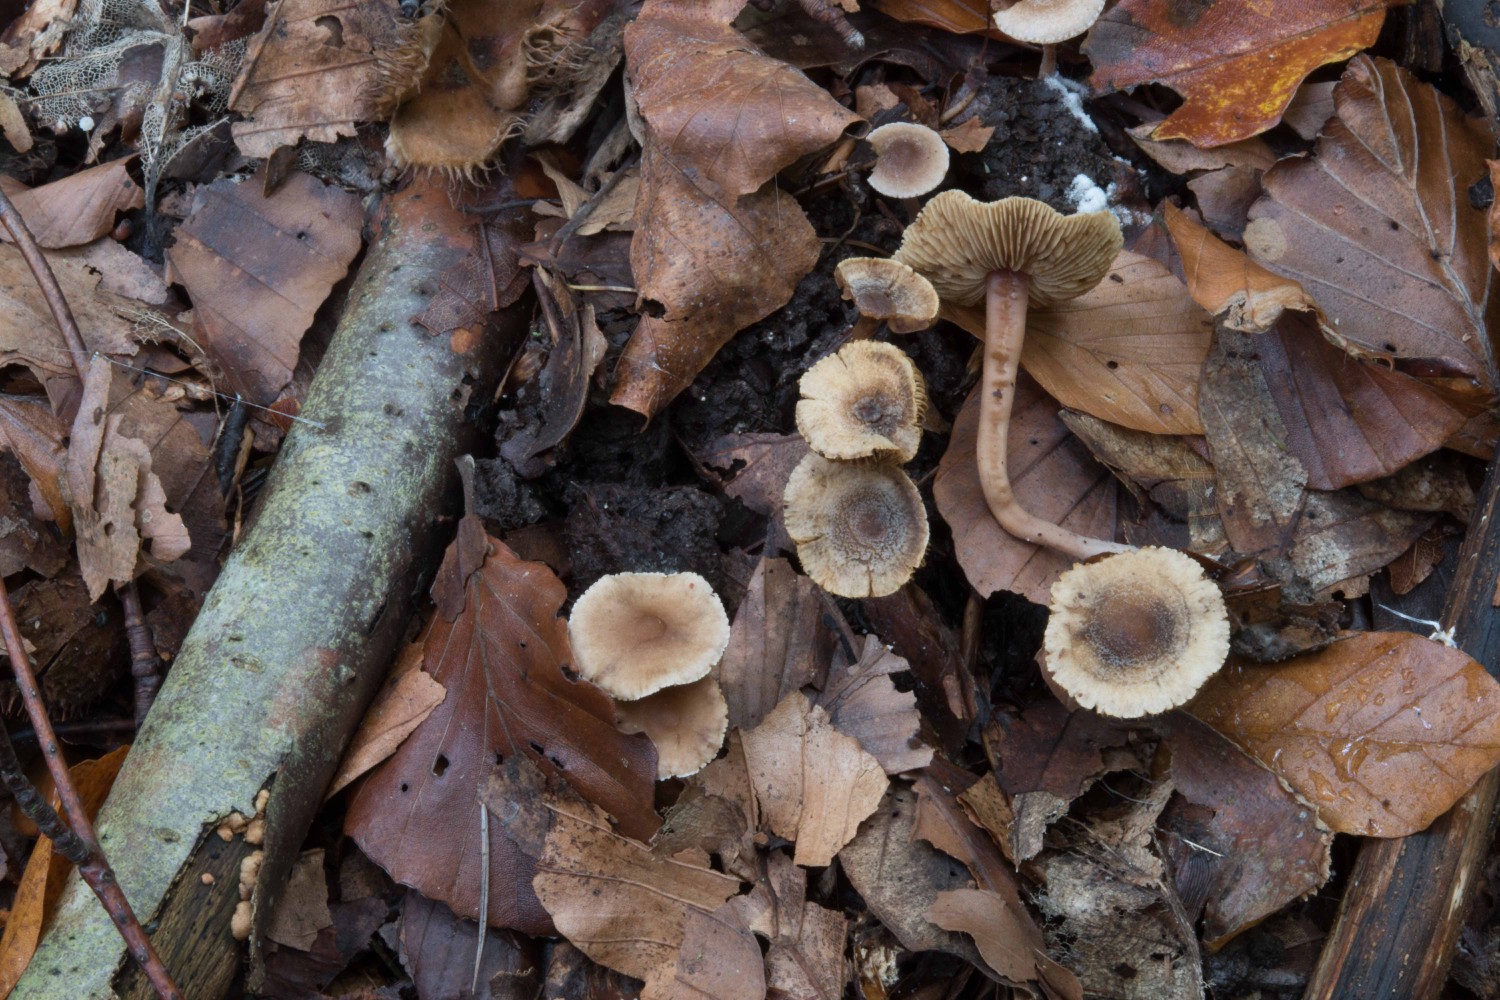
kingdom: Fungi
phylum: Basidiomycota
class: Agaricomycetes
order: Agaricales
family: Inocybaceae
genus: Inocybe
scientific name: Inocybe petiginosa
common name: liden trævlhat
